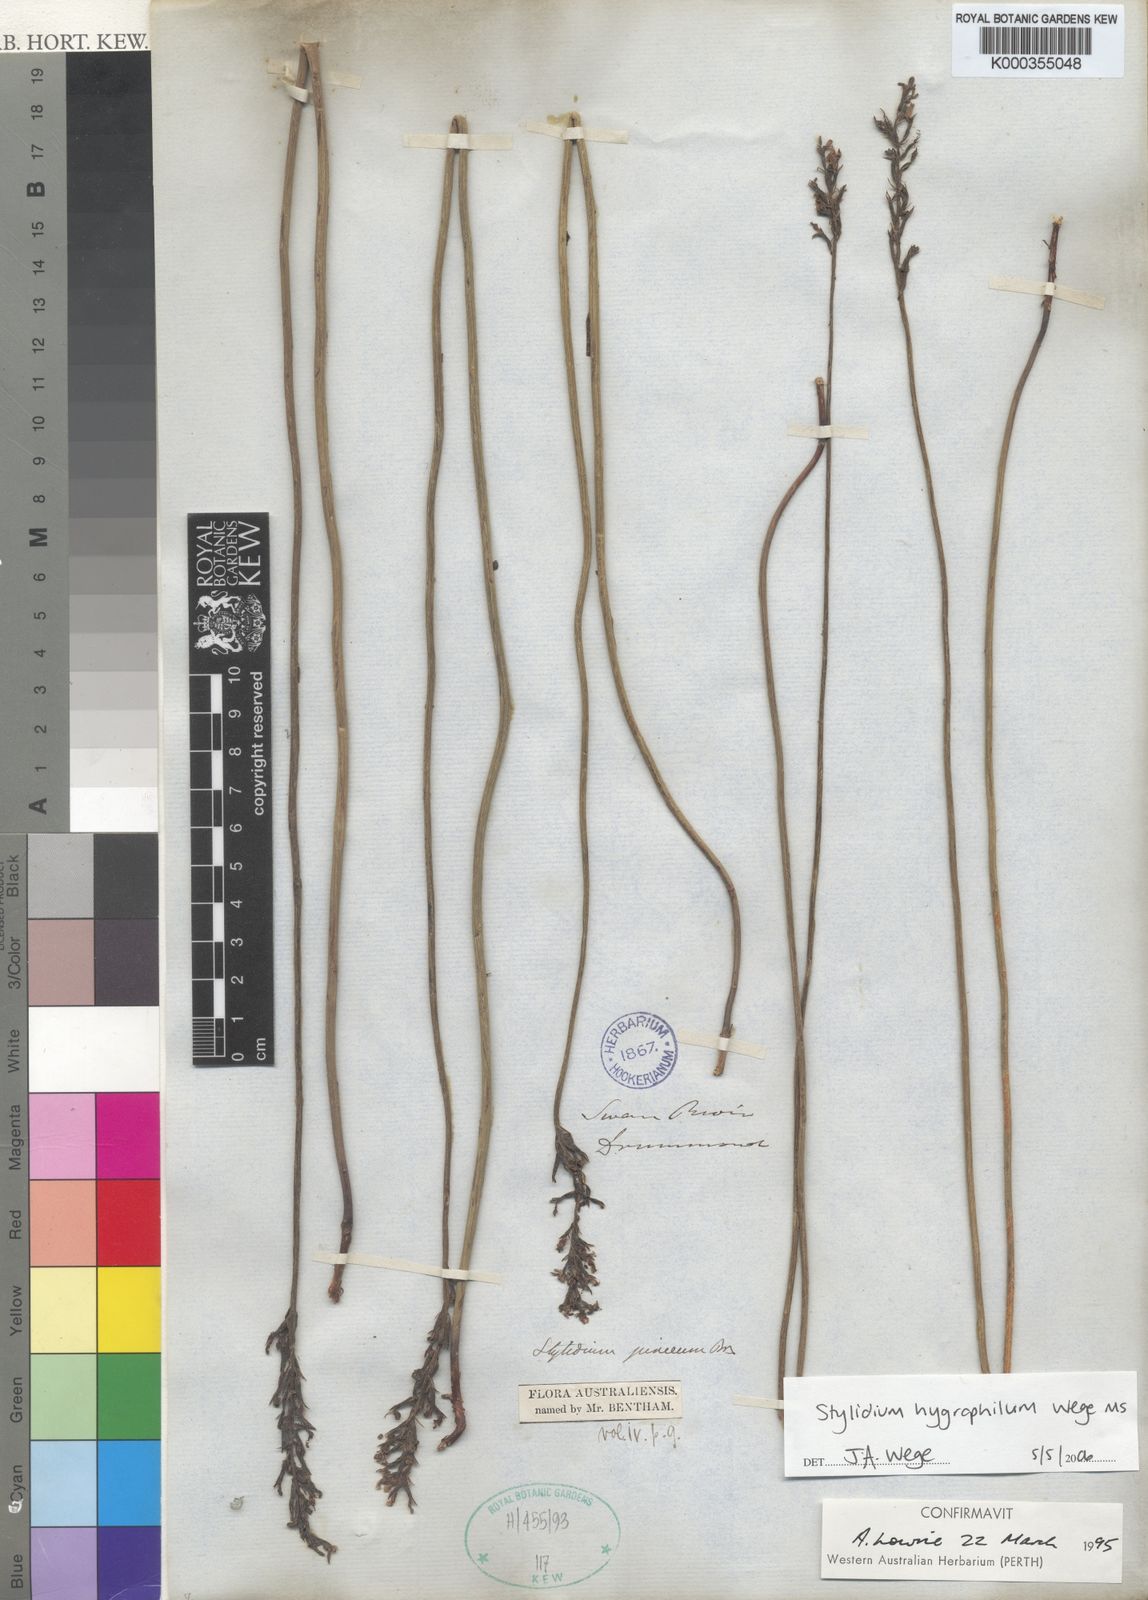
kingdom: Plantae
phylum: Tracheophyta
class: Magnoliopsida
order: Asterales
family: Stylidiaceae
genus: Stylidium
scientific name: Stylidium hygrophilum
